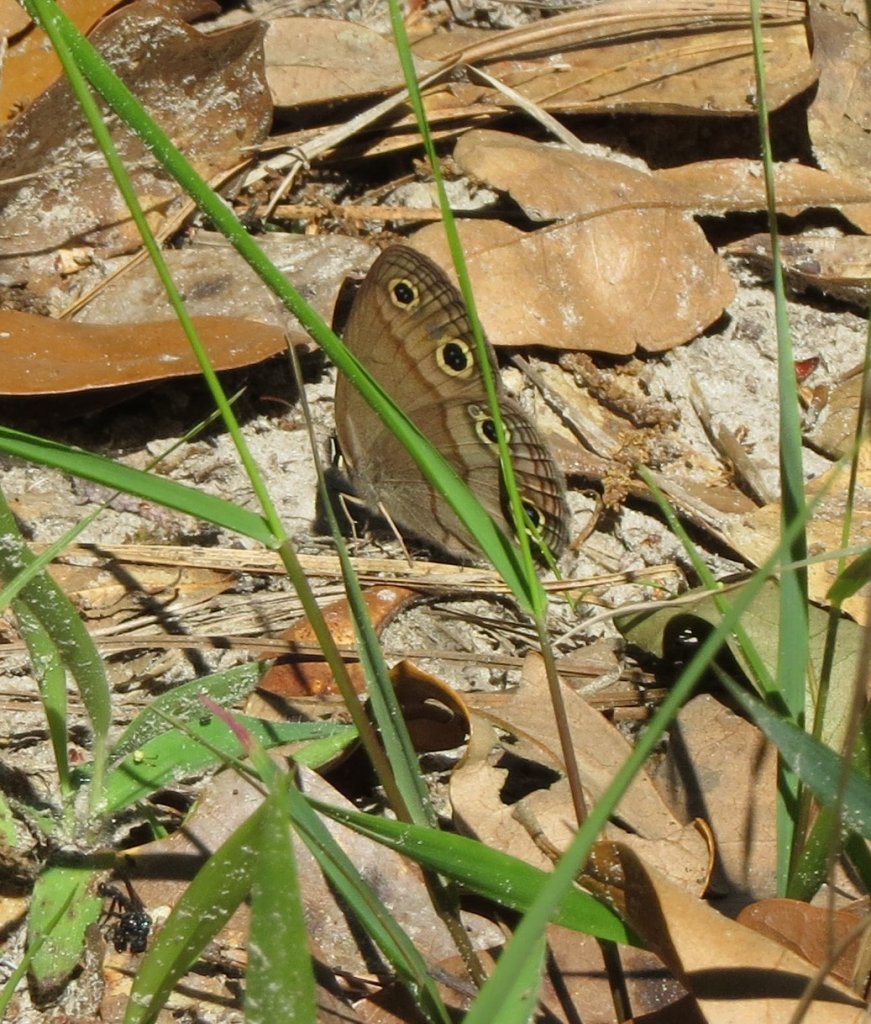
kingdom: Animalia
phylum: Arthropoda
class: Insecta
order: Lepidoptera
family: Nymphalidae
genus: Euptychia
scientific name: Euptychia cymela
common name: Little Wood Satyr
